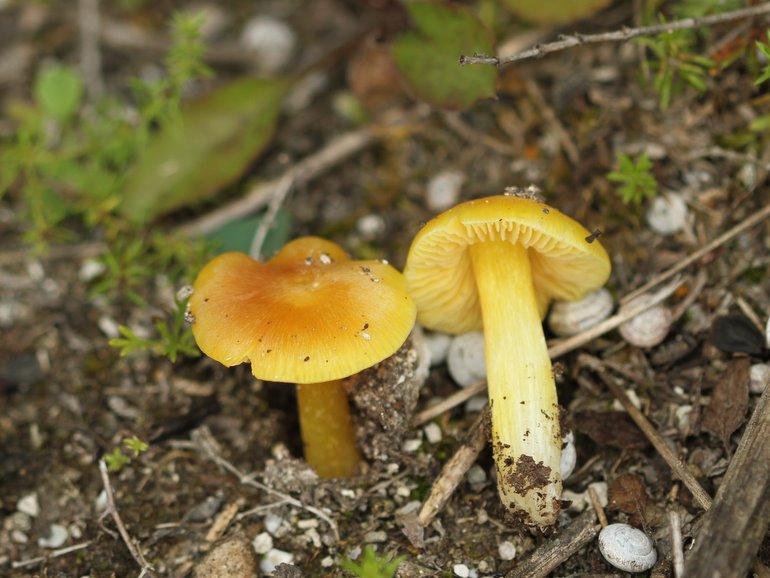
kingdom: Fungi
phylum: Basidiomycota
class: Agaricomycetes
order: Agaricales
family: Hygrophoraceae
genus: Hygrocybe
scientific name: Hygrocybe acutoconica
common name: Konrads vokshat
